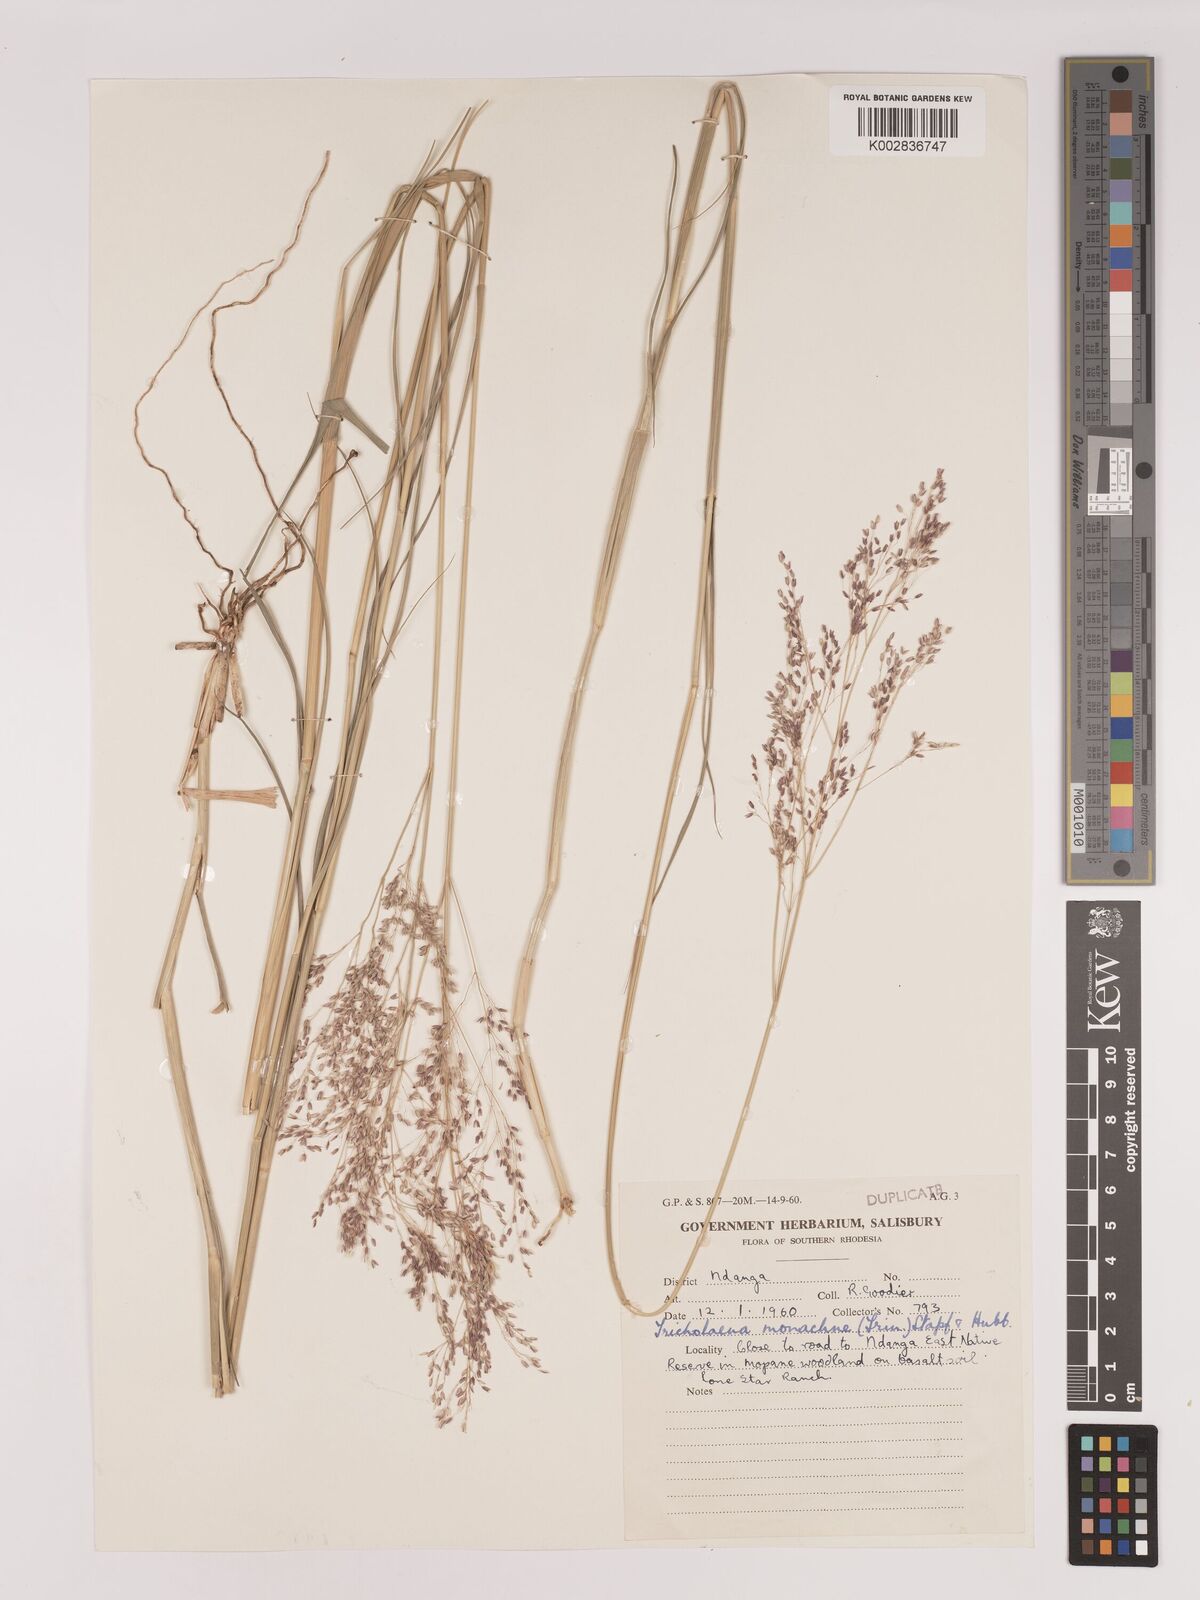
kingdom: Plantae
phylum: Tracheophyta
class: Liliopsida
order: Poales
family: Poaceae
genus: Tricholaena
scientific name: Tricholaena monachne
